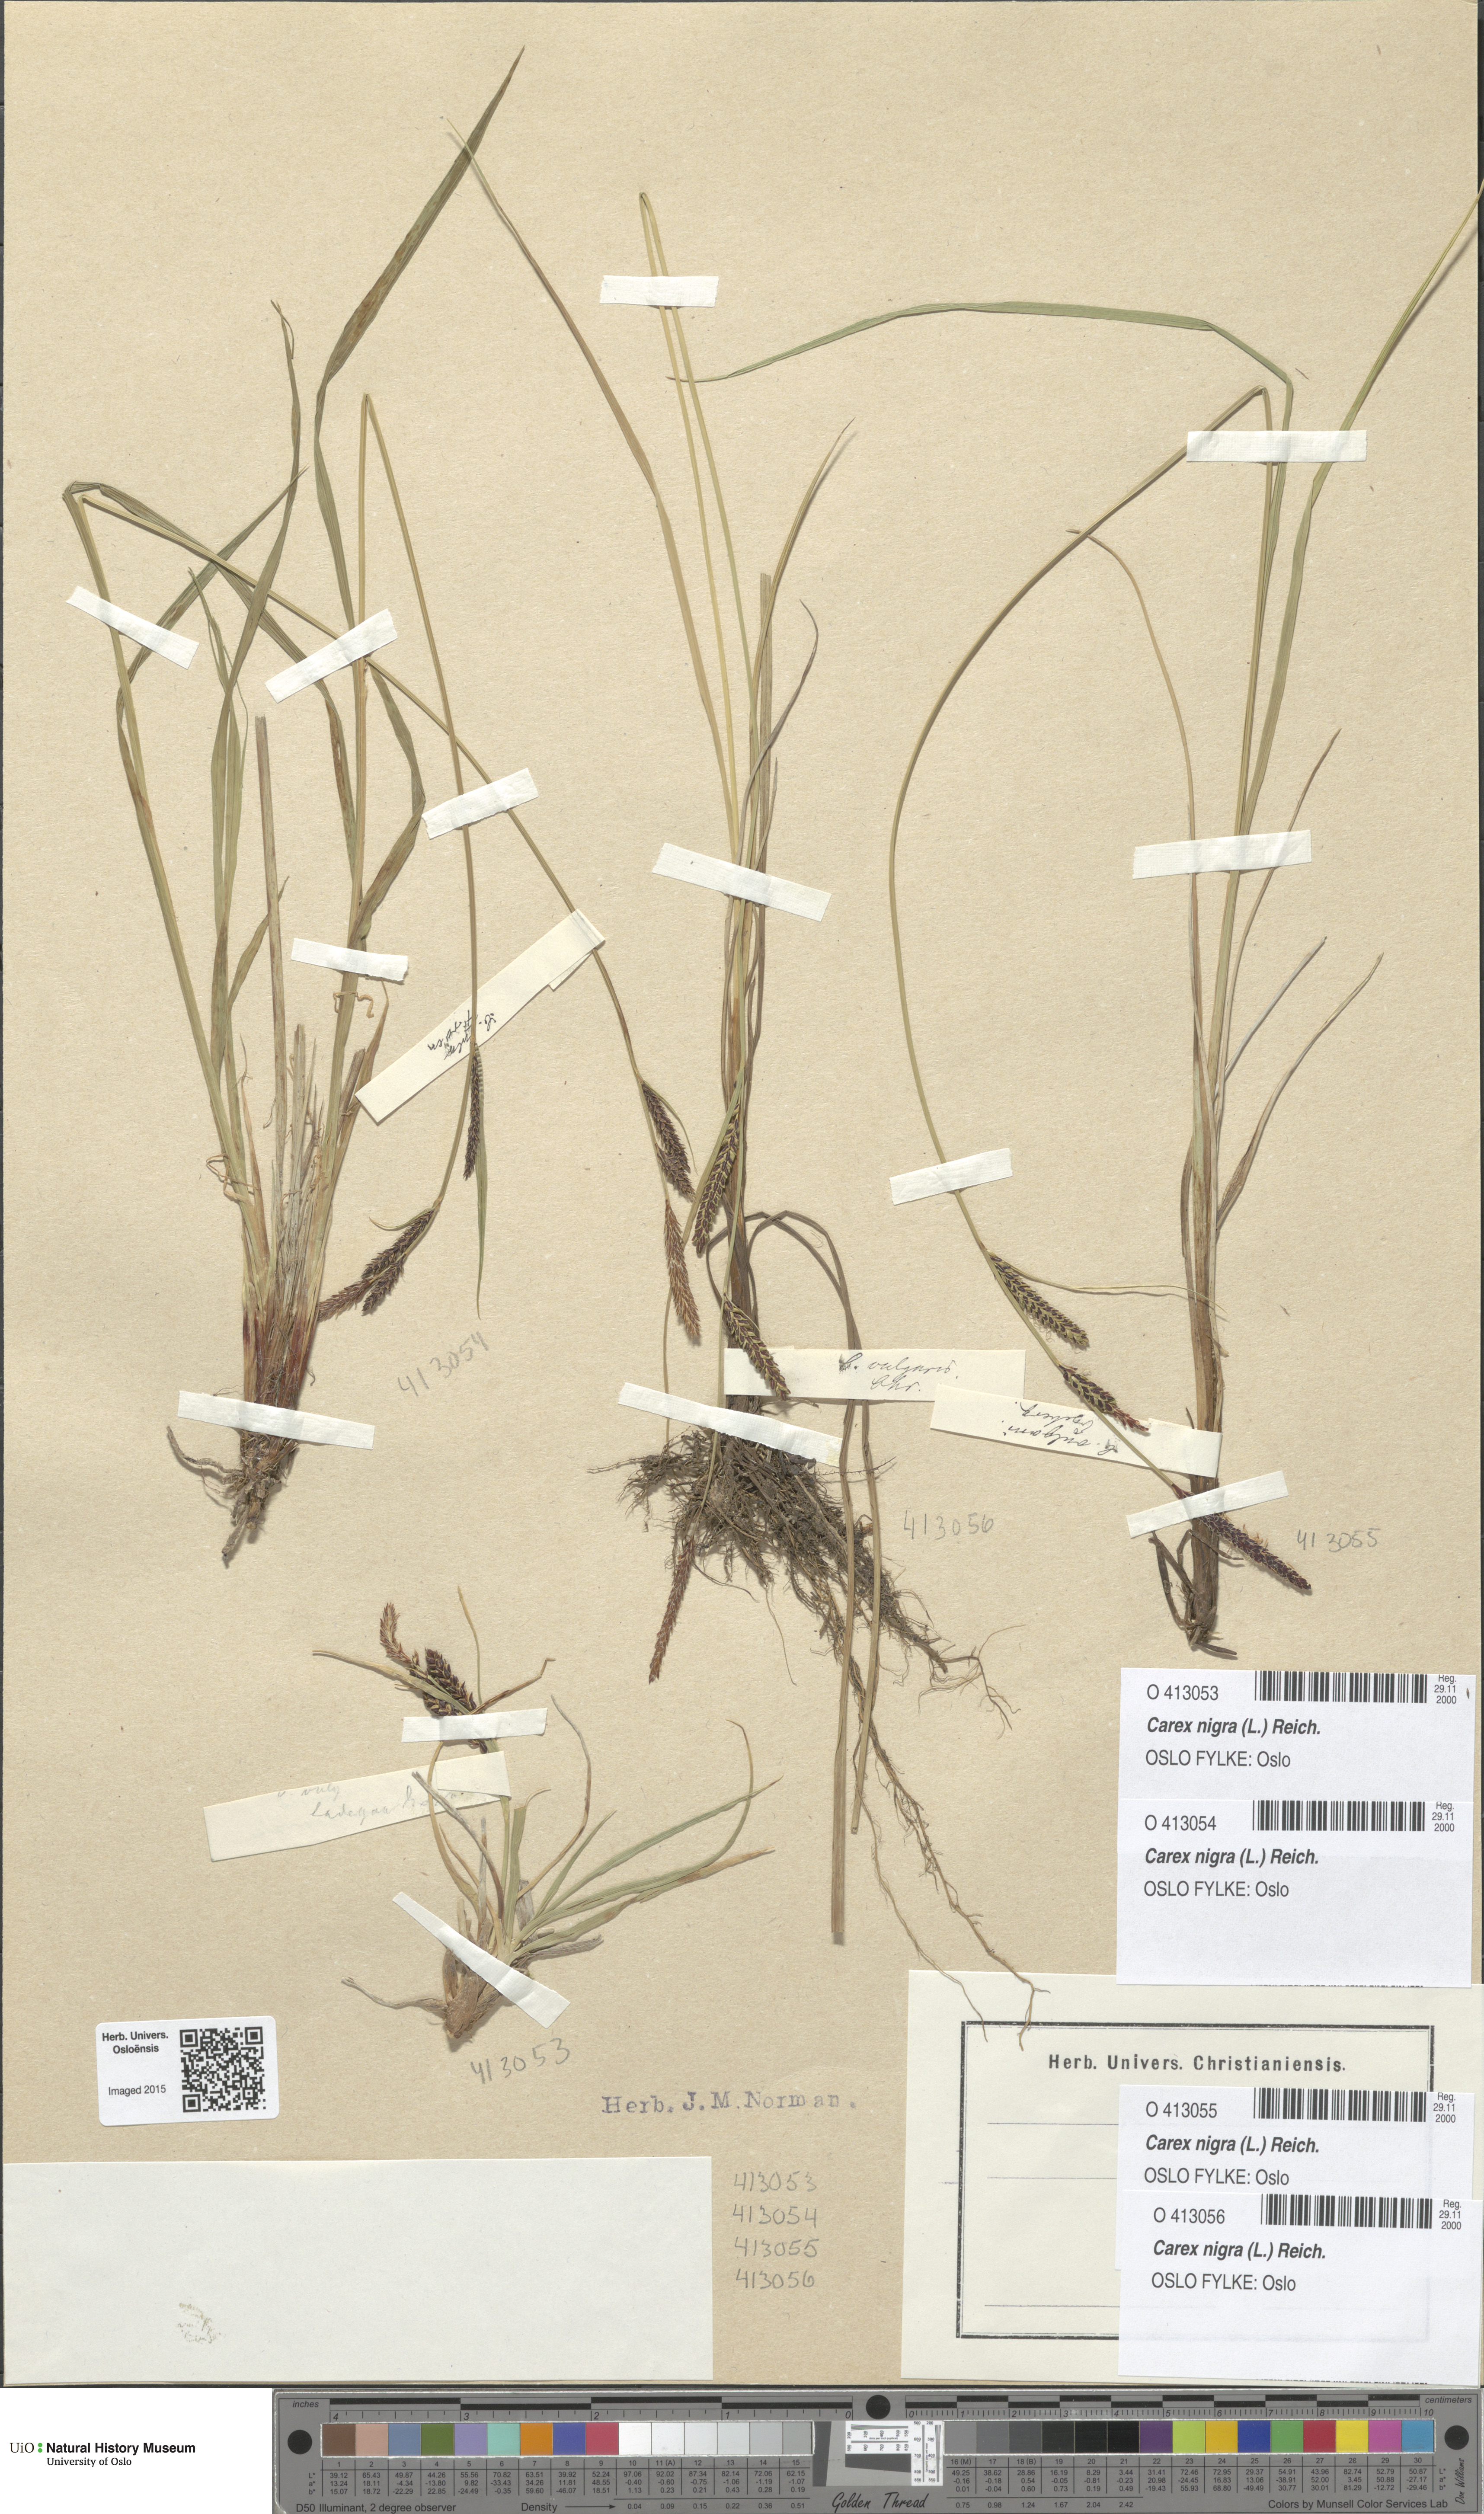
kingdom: Plantae
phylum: Tracheophyta
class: Liliopsida
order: Poales
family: Cyperaceae
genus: Carex
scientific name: Carex nigra
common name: Common sedge
